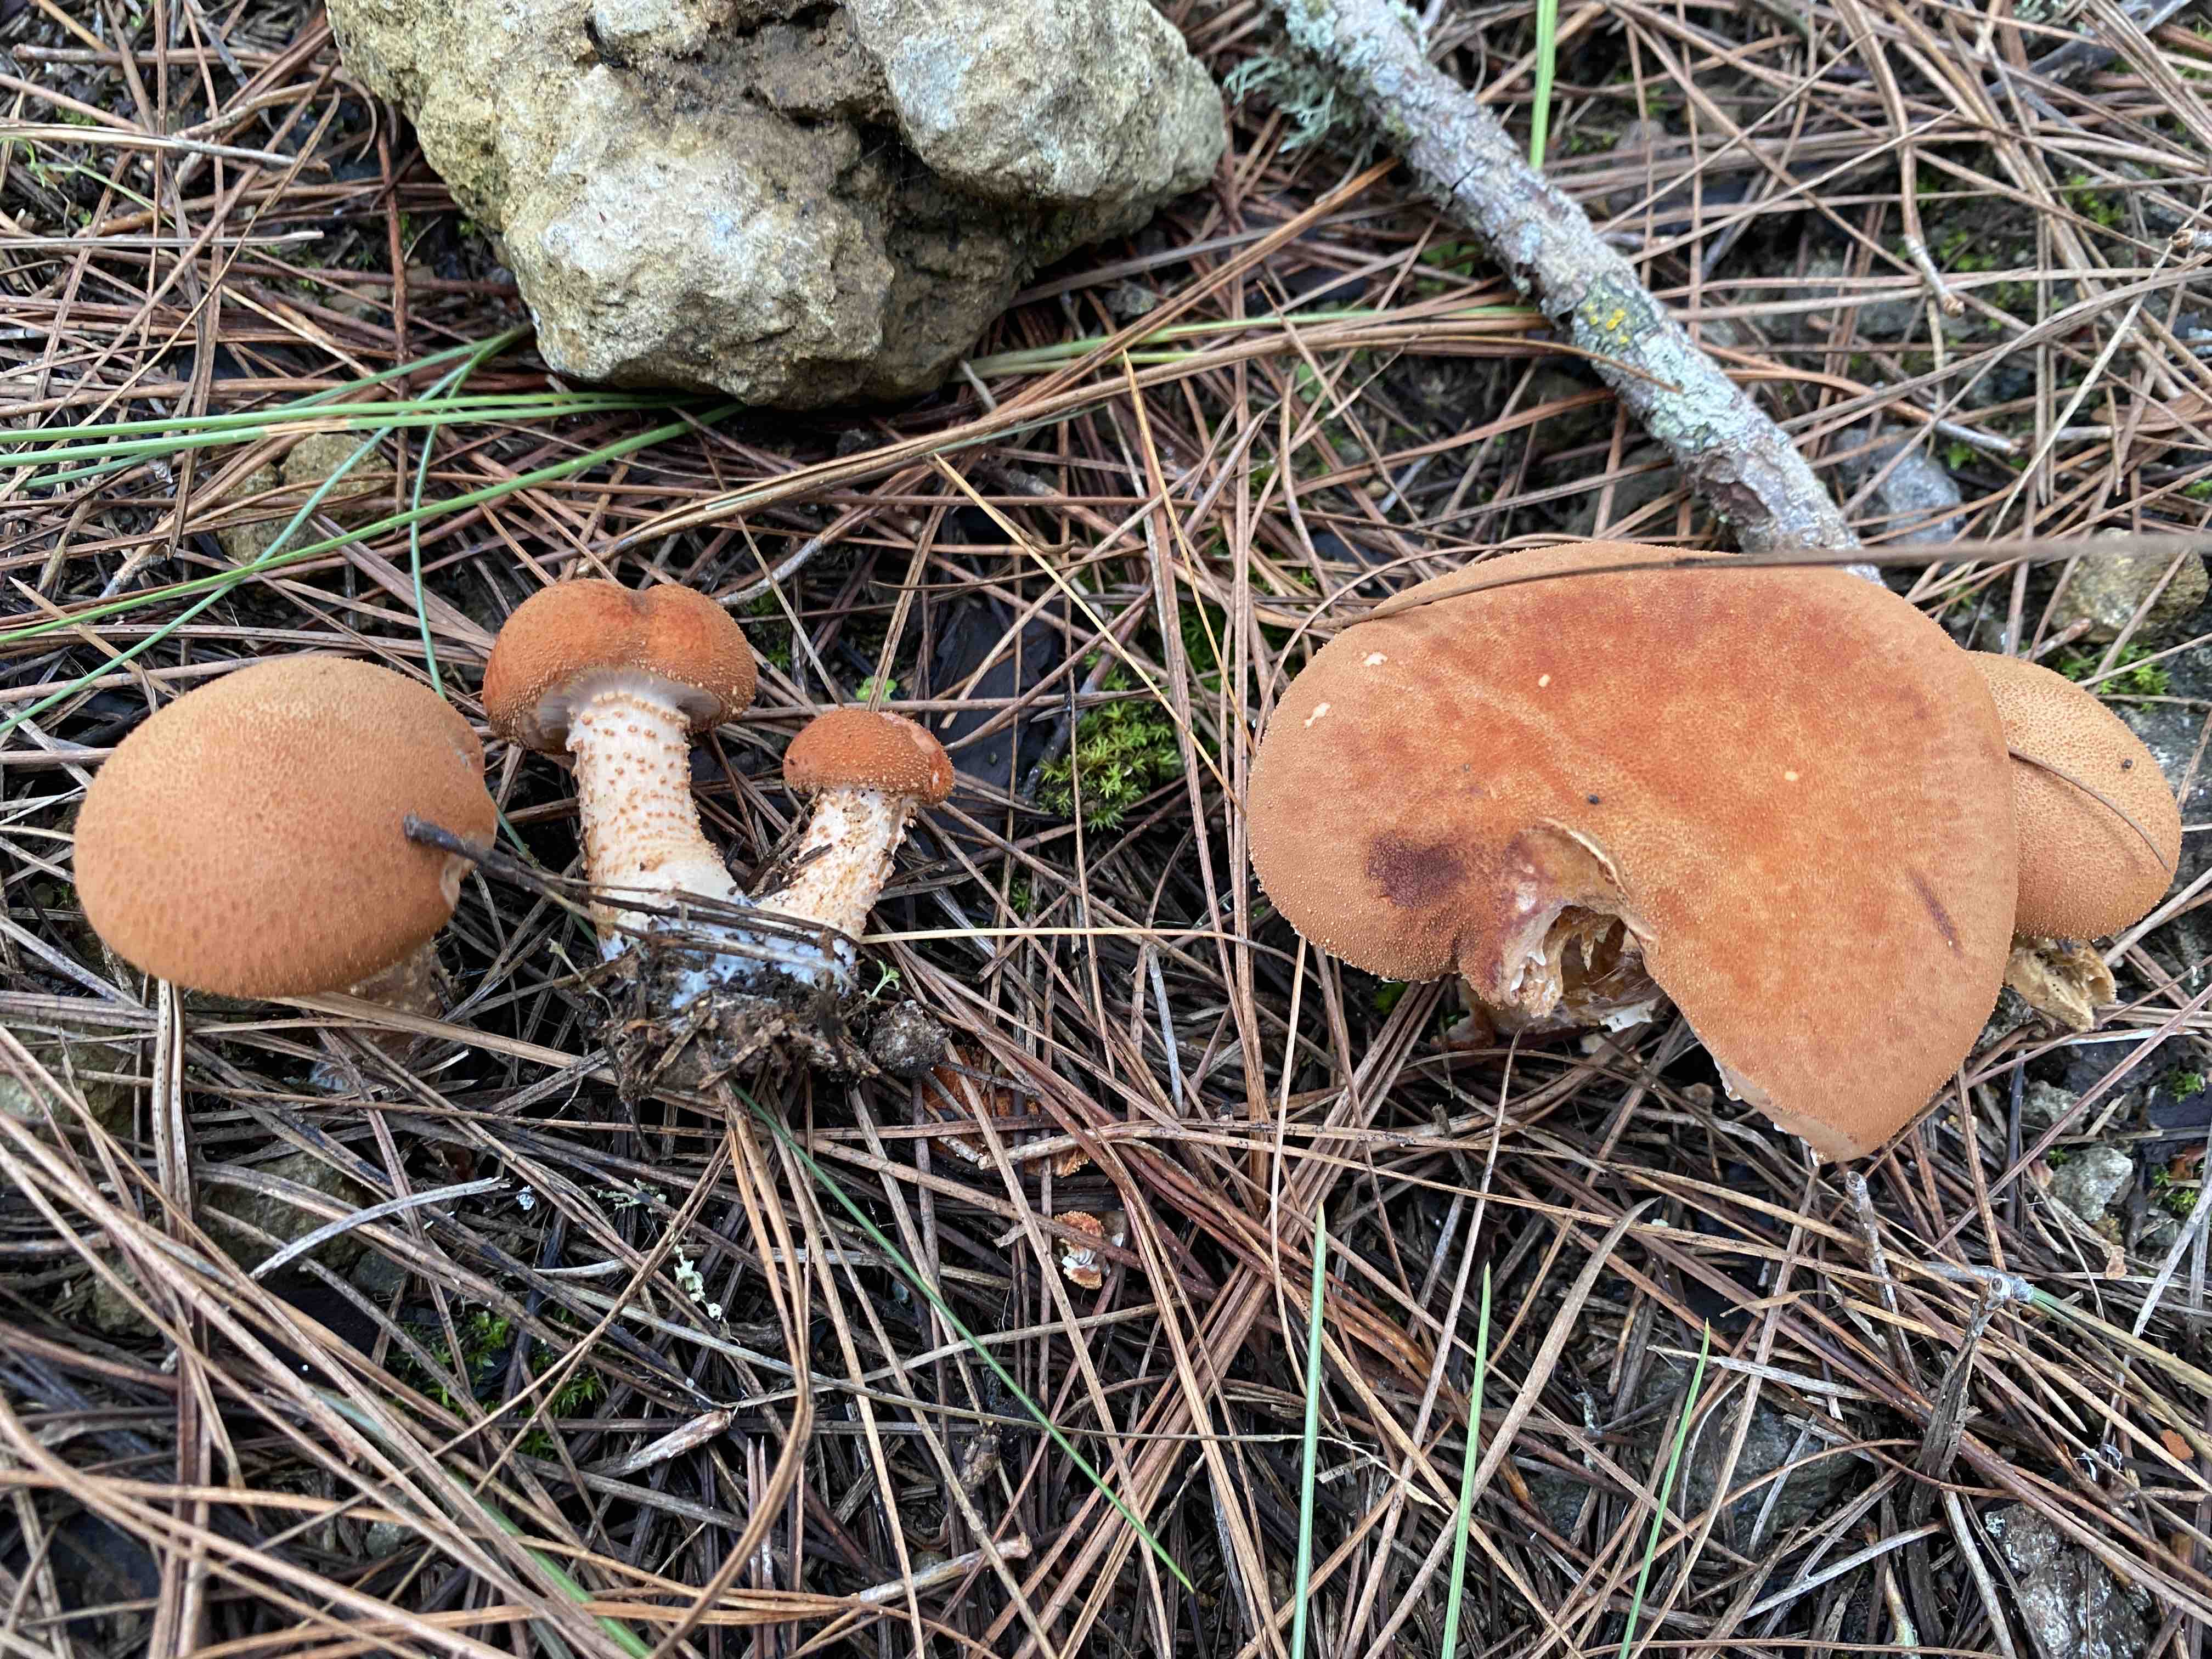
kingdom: Fungi
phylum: Basidiomycota
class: Agaricomycetes
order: Agaricales
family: Agaricaceae
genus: Cystodermella
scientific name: Cystodermella
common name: grynhat
